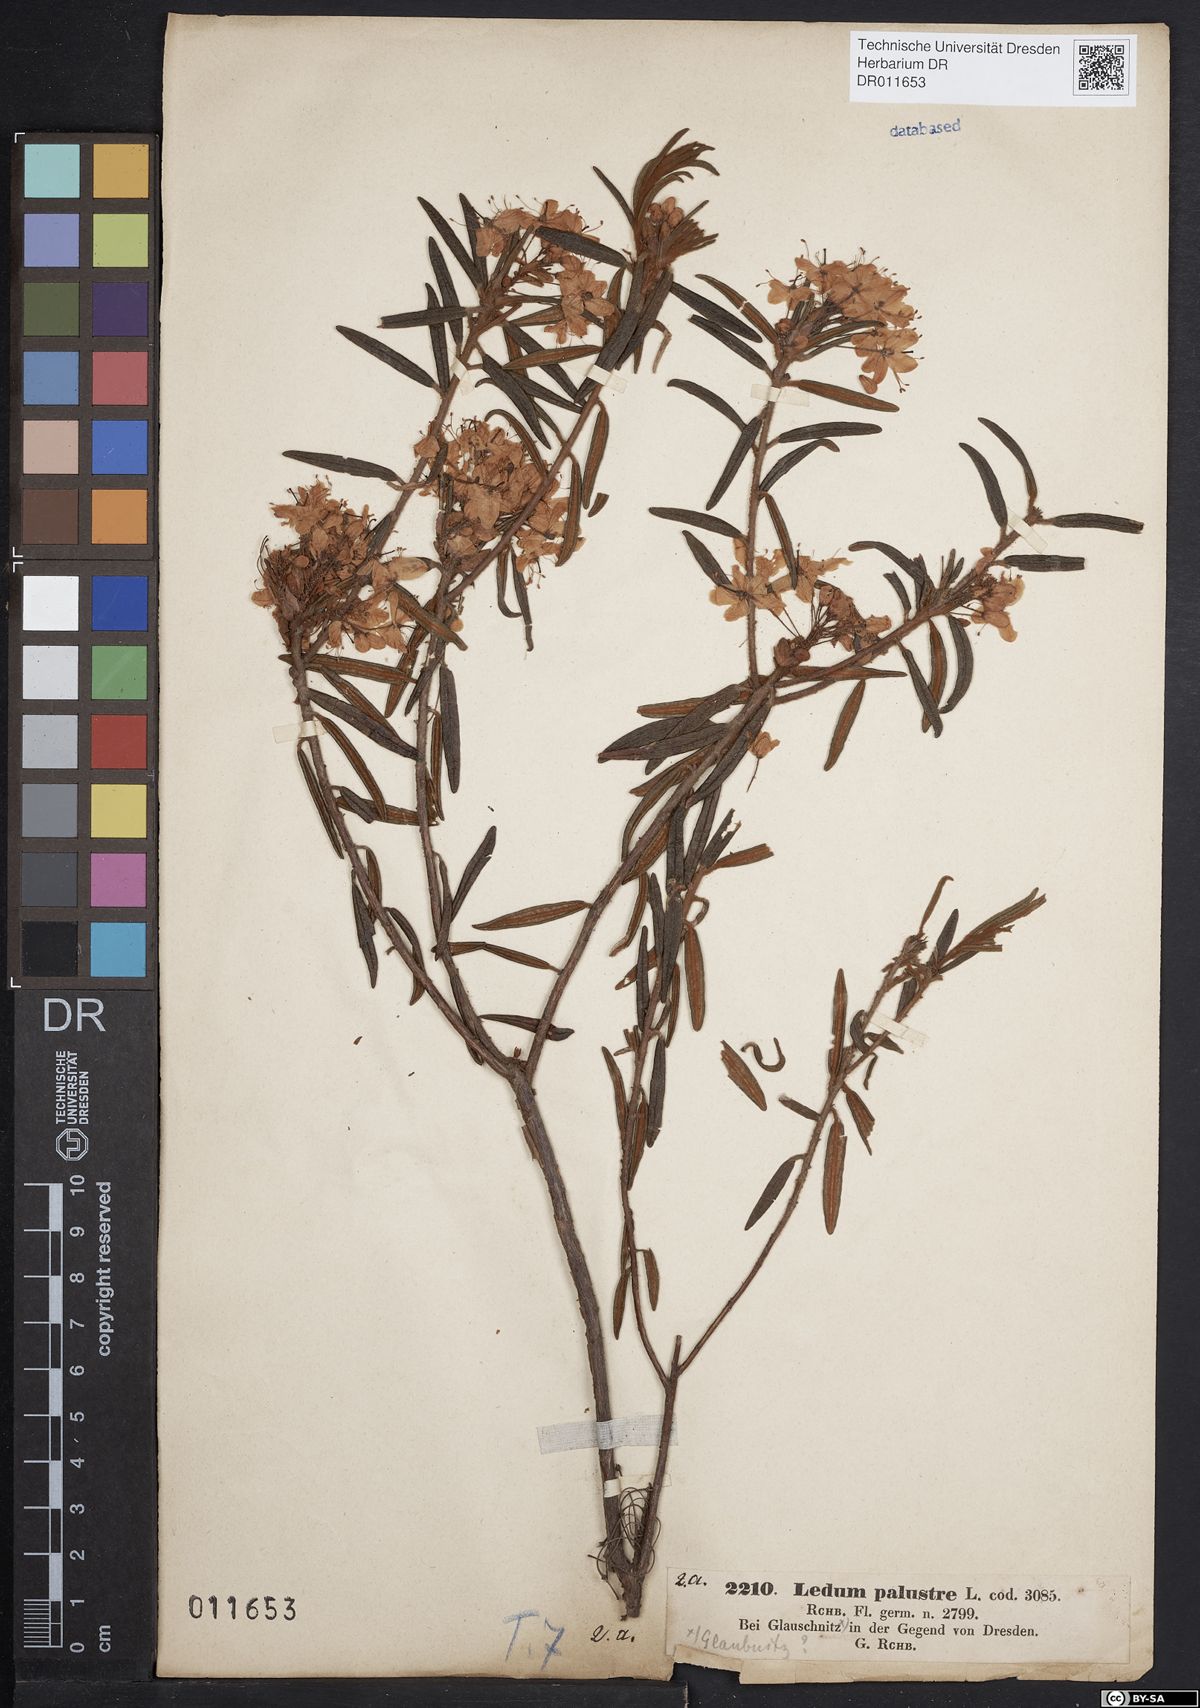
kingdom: Plantae
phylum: Tracheophyta
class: Magnoliopsida
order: Ericales
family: Ericaceae
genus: Rhododendron
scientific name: Rhododendron tomentosum
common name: Marsh labrador tea
